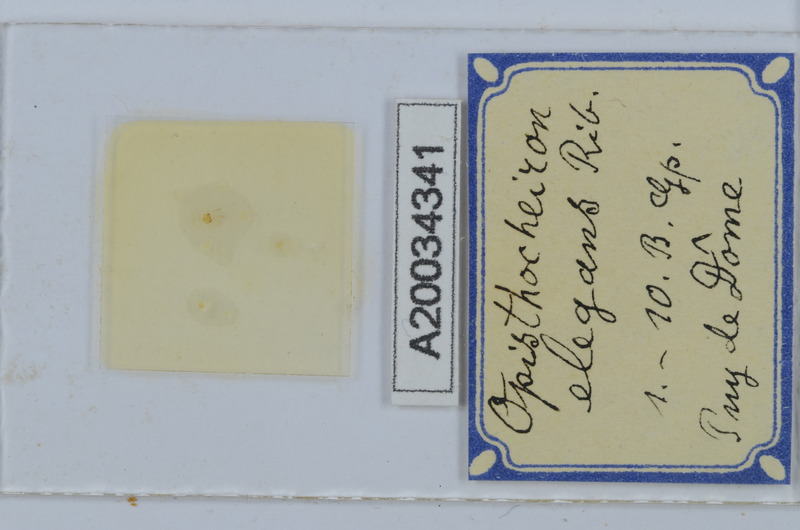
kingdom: Animalia
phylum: Arthropoda
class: Diplopoda
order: Chordeumatida
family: Opisthocheiridae
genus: Opisthocheiron
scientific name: Opisthocheiron elegans
